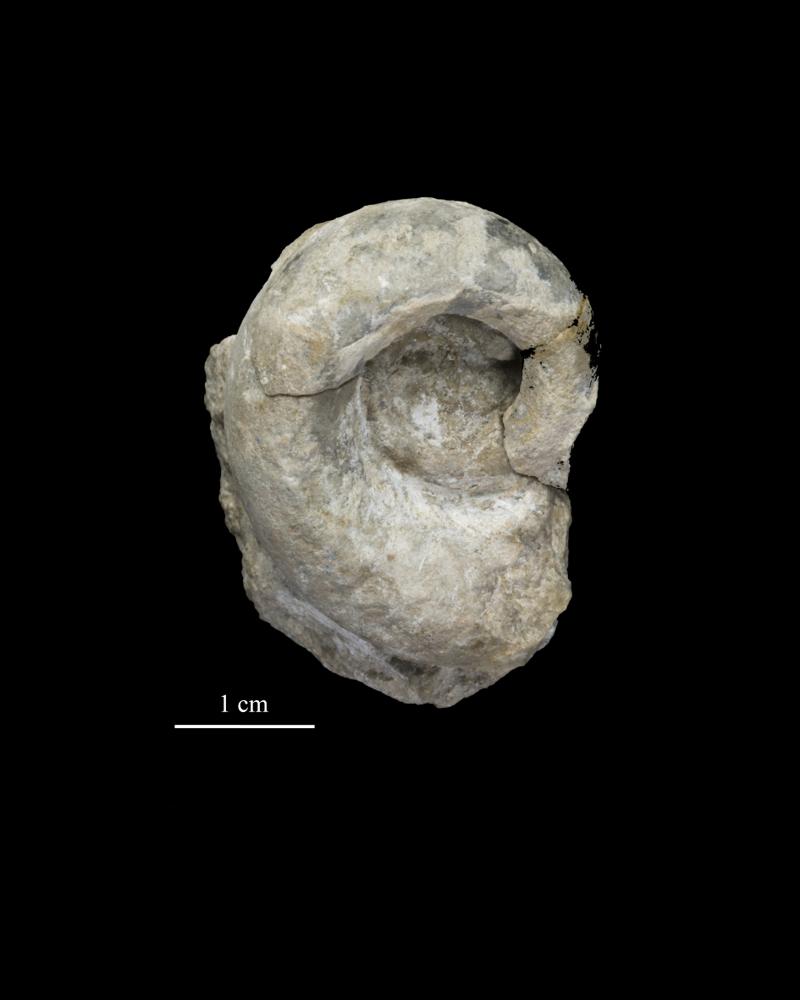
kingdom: Animalia
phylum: Mollusca
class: Gastropoda
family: Lesueurillidae
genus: Mestoronema
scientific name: Mestoronema Euomphalus marginalis
